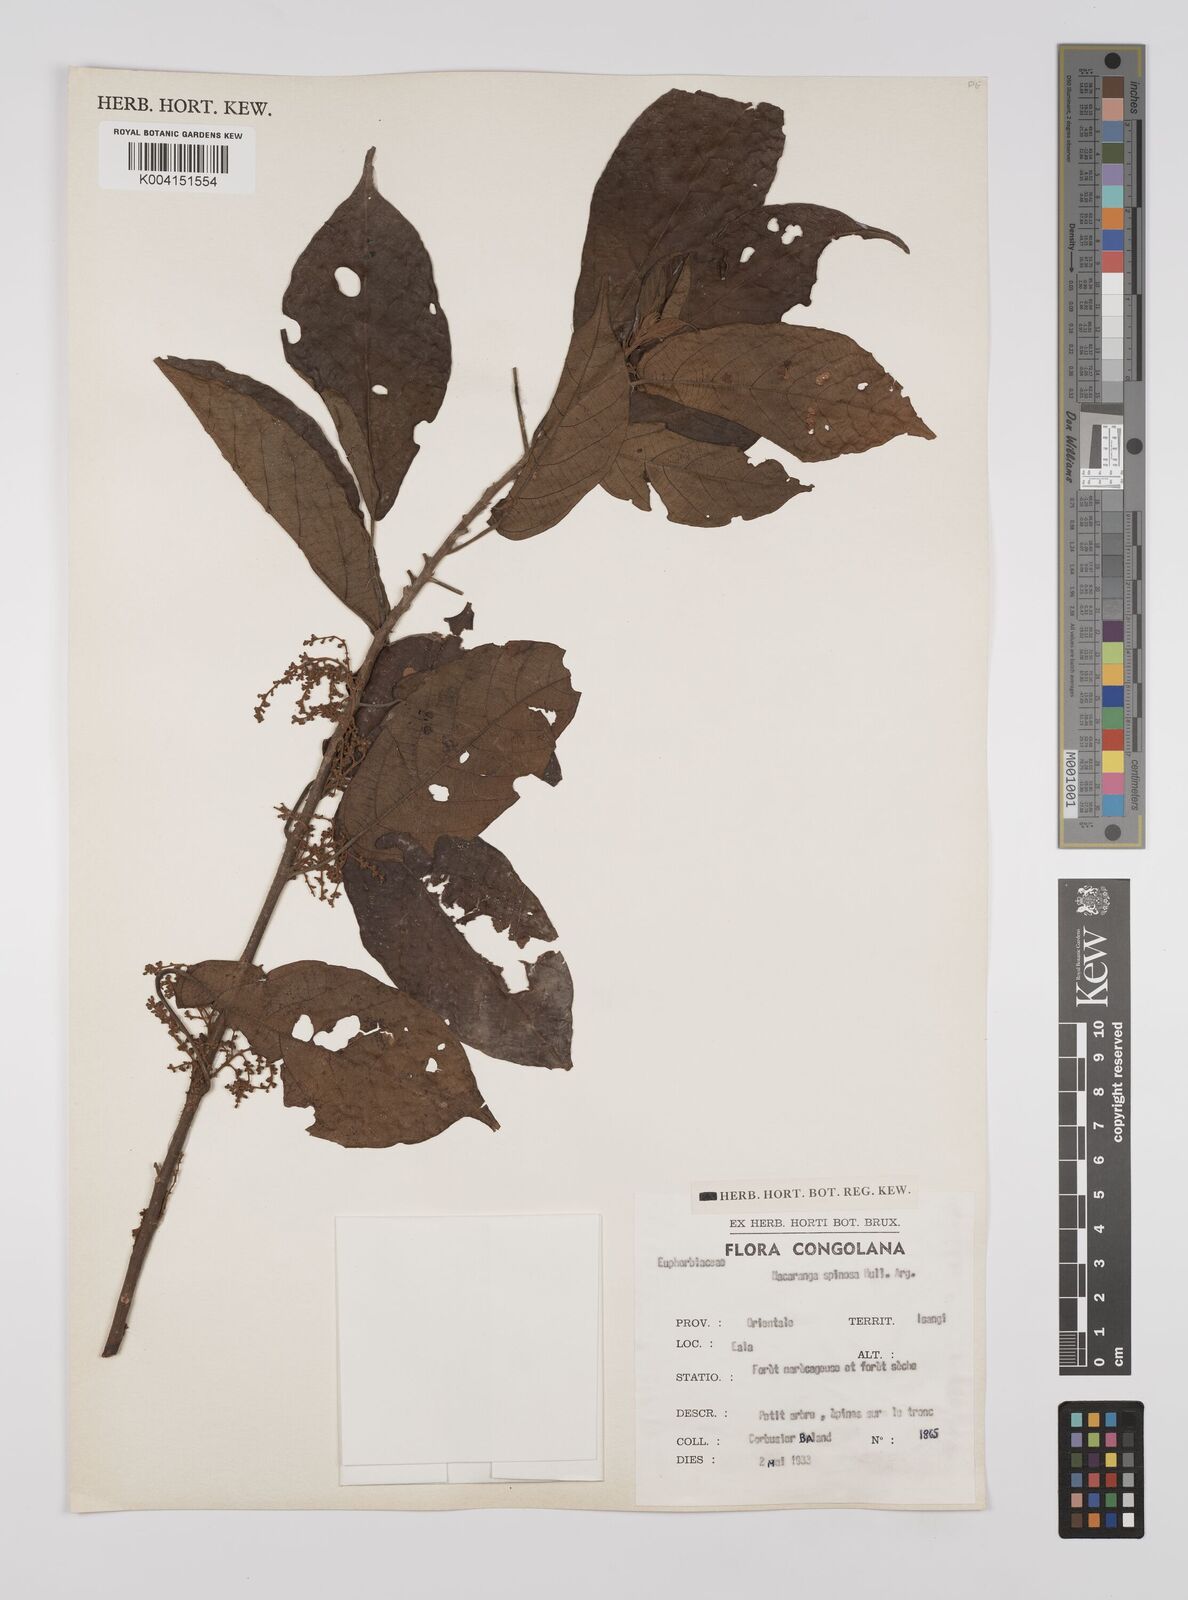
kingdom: Plantae
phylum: Tracheophyta
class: Magnoliopsida
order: Malpighiales
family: Euphorbiaceae
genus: Macaranga
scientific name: Macaranga spinosa
